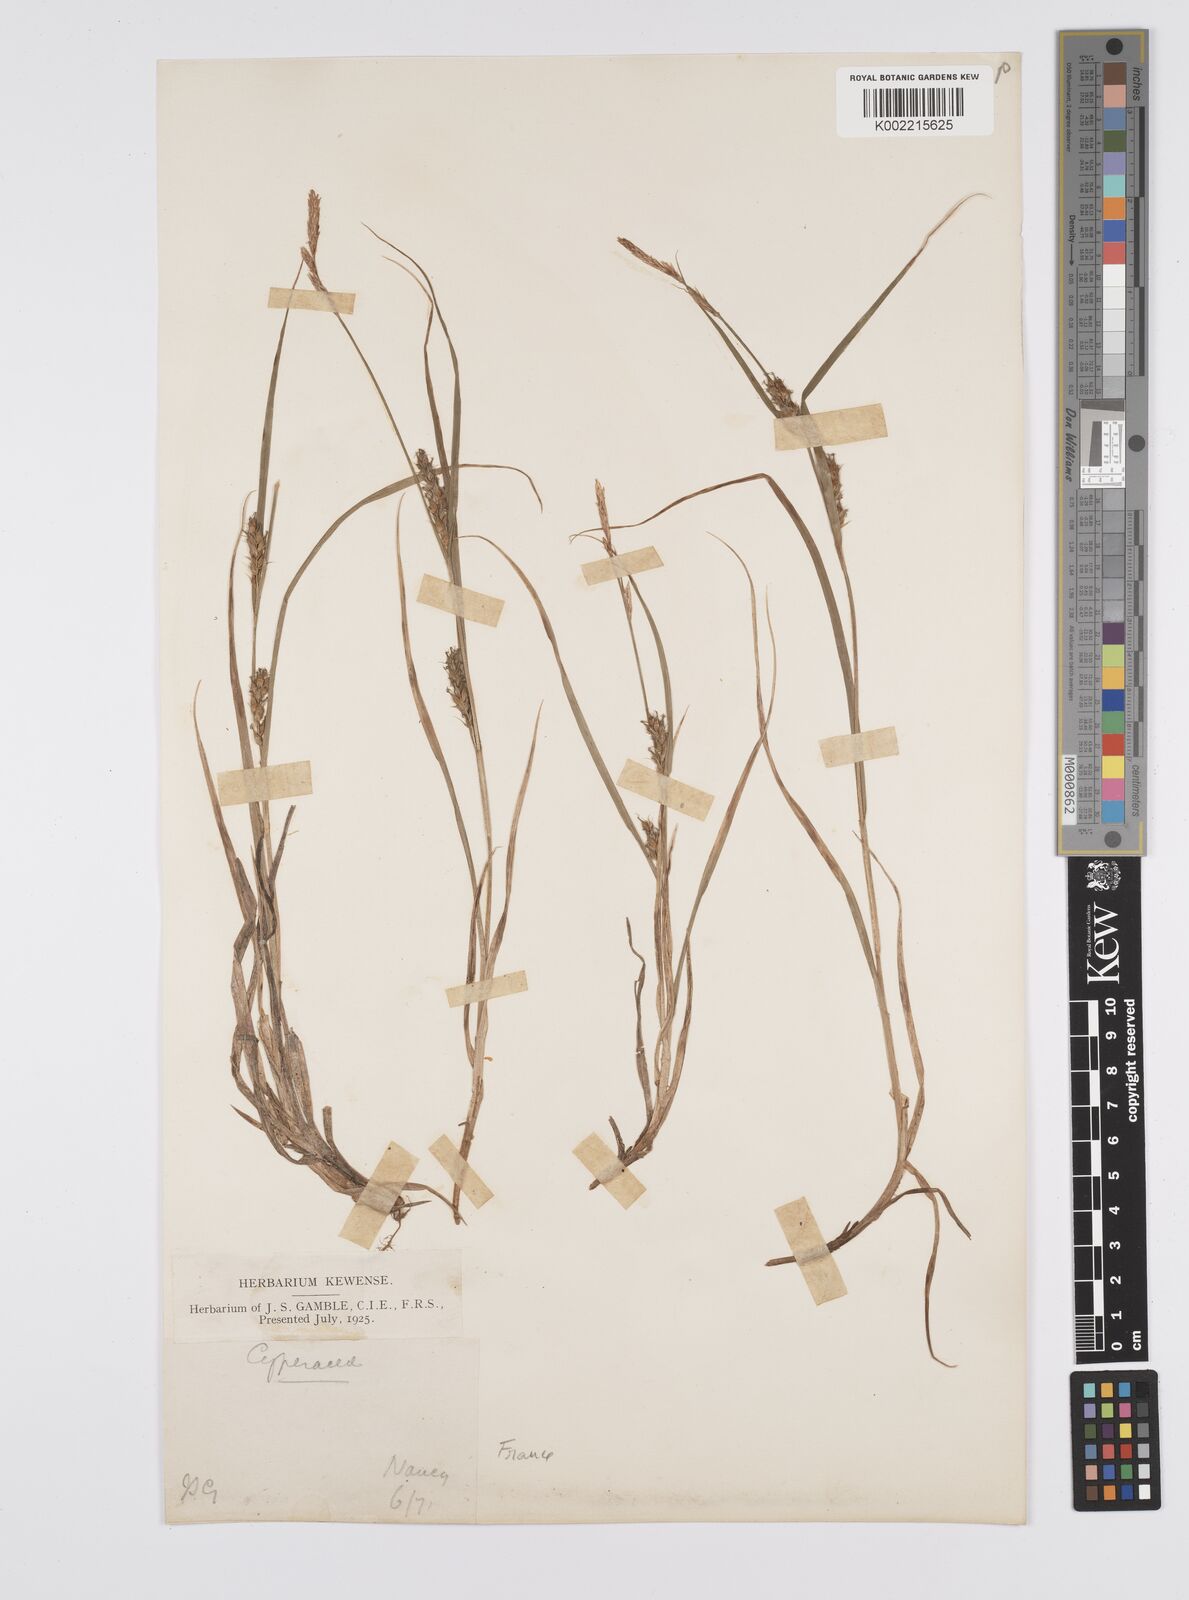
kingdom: Plantae
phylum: Tracheophyta
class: Liliopsida
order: Poales
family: Cyperaceae
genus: Carex
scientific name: Carex hirta
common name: Hairy sedge
